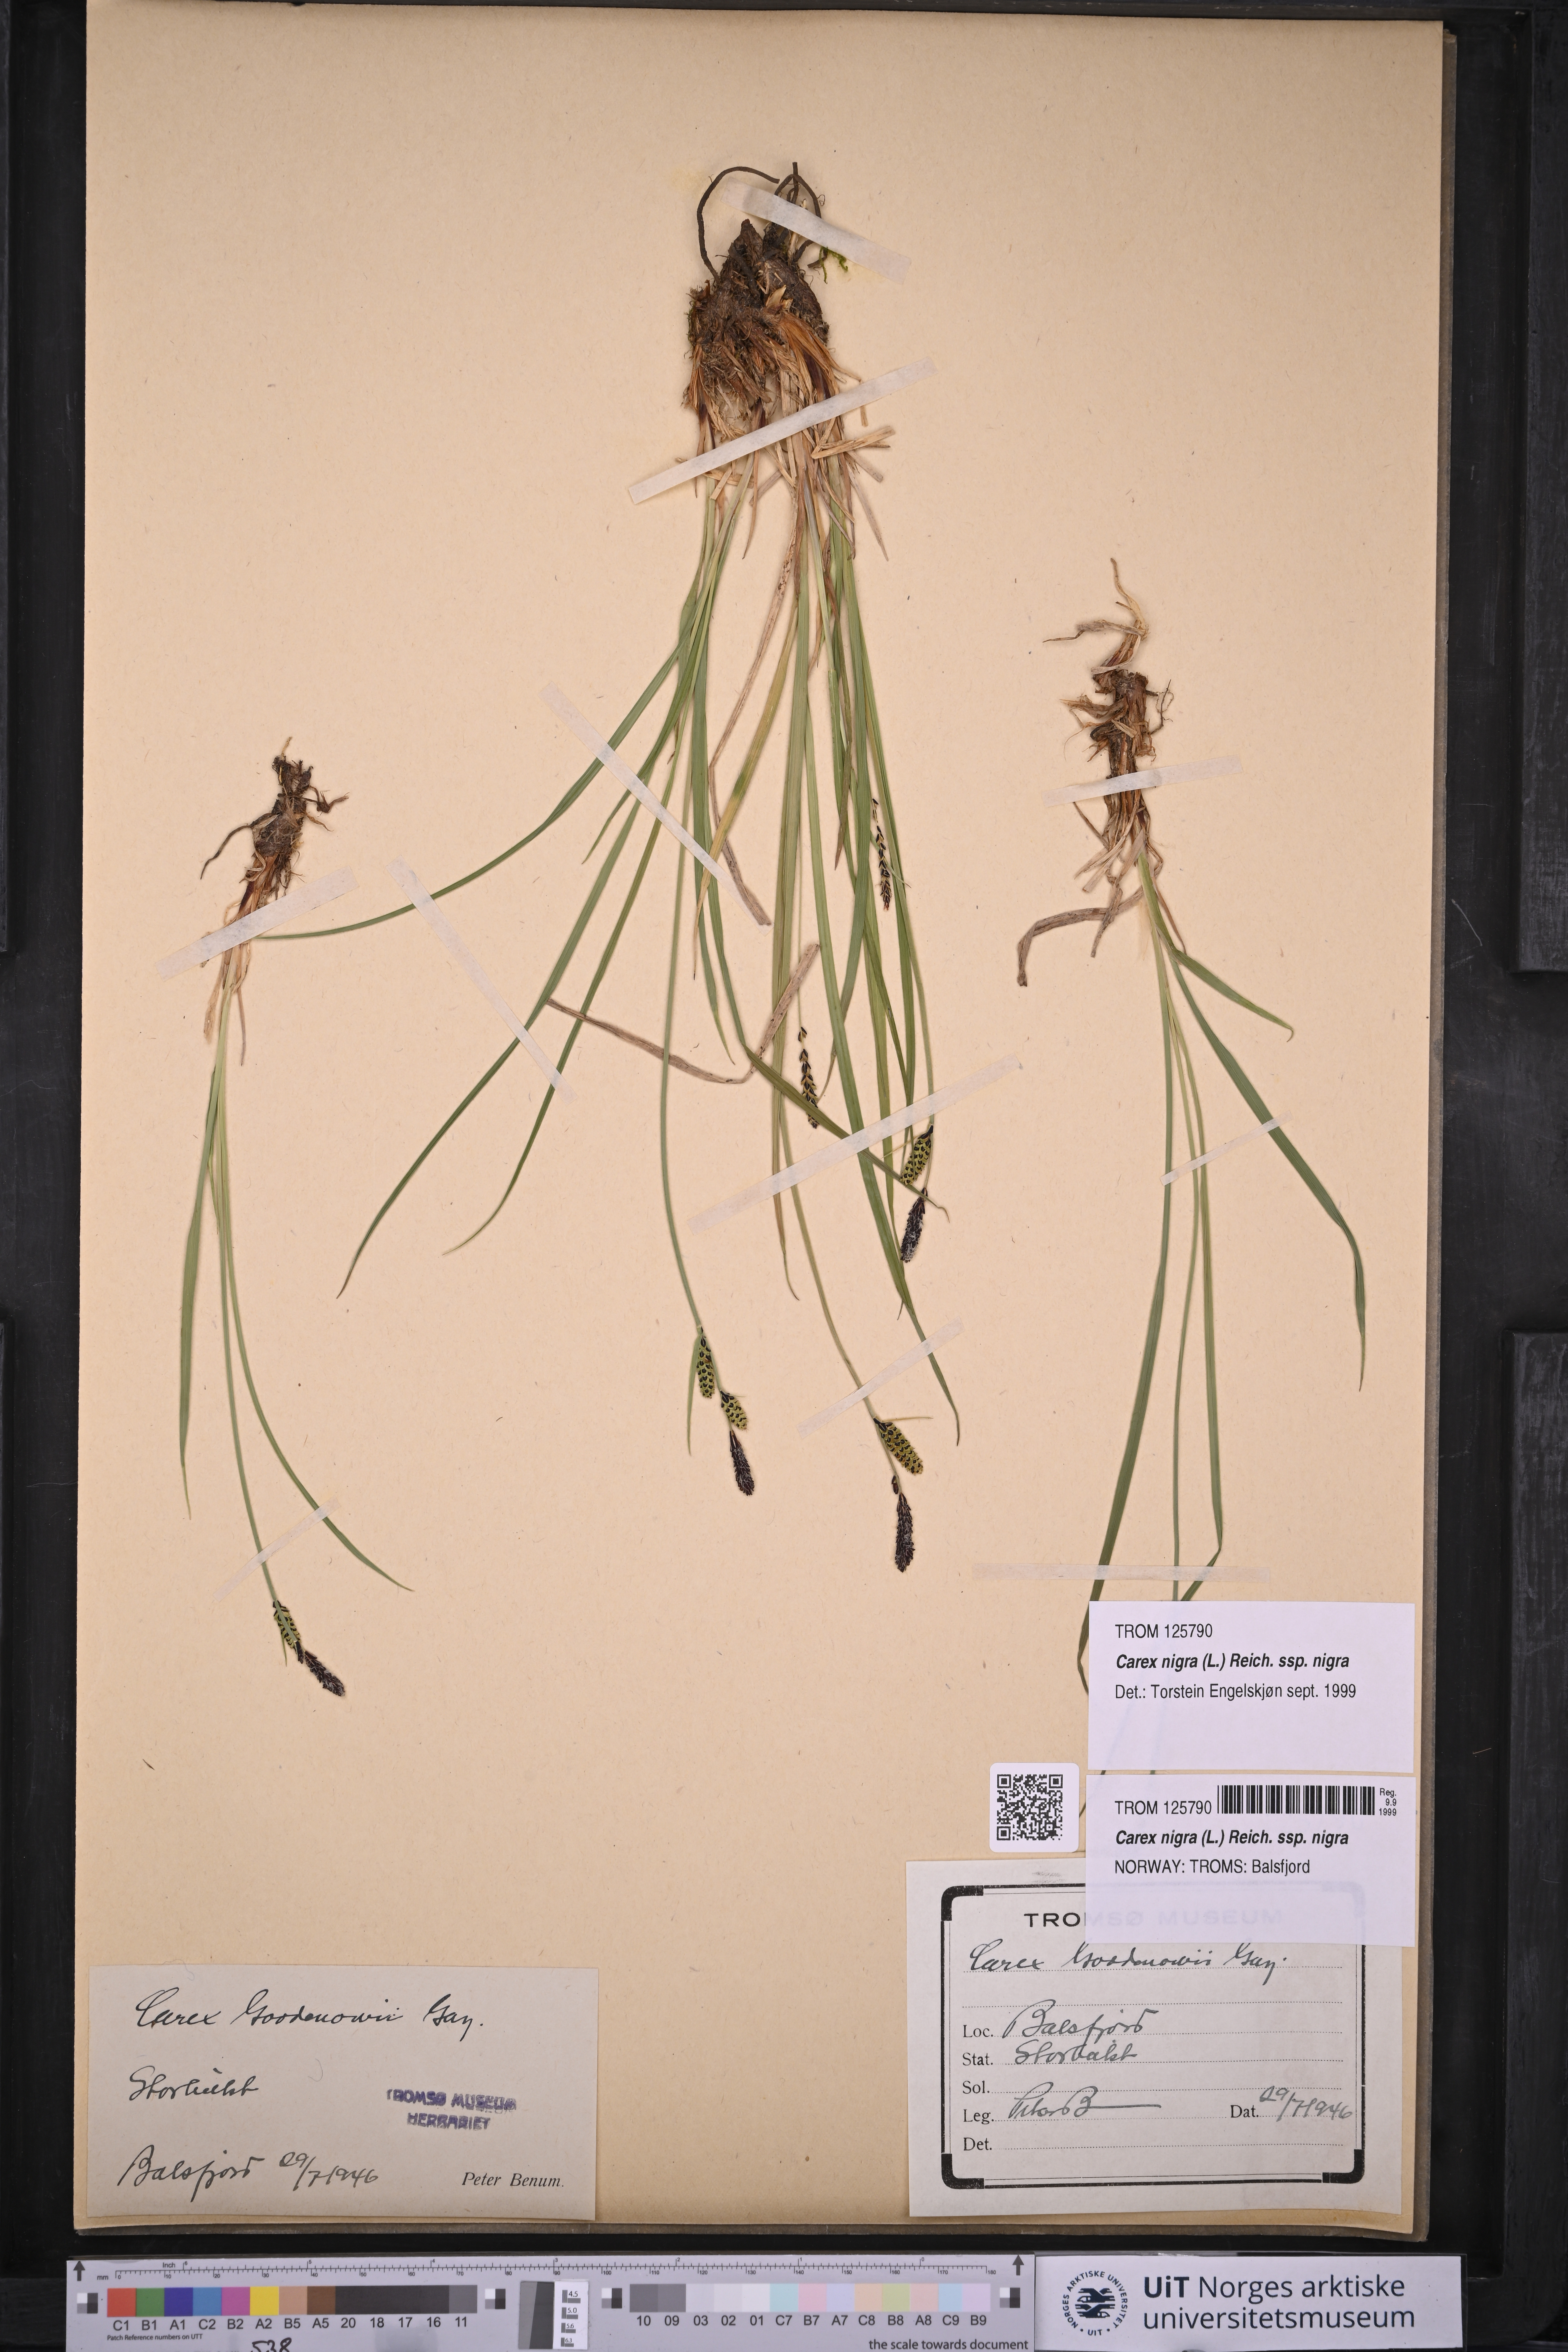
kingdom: Plantae
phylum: Tracheophyta
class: Liliopsida
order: Poales
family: Cyperaceae
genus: Carex
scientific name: Carex nigra
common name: Common sedge
